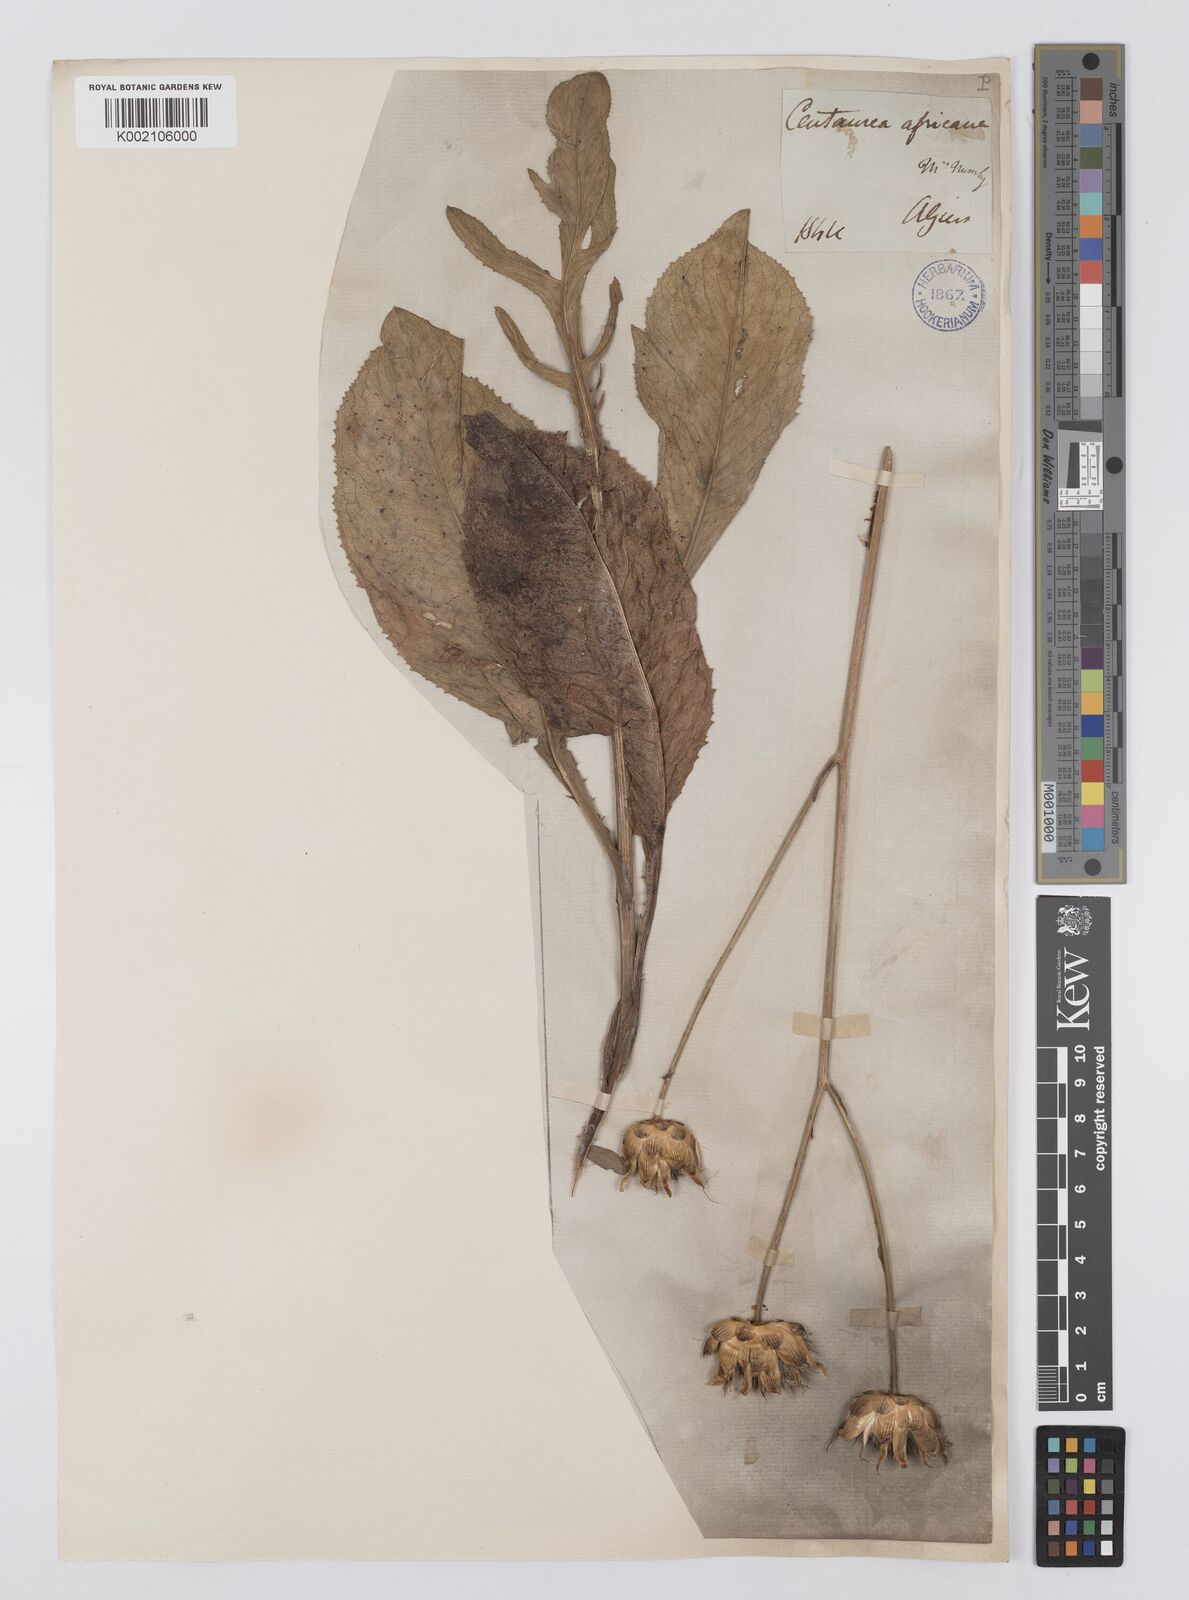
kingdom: Plantae
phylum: Tracheophyta
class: Magnoliopsida
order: Asterales
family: Asteraceae
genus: Rhaponticoides
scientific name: Rhaponticoides africana
